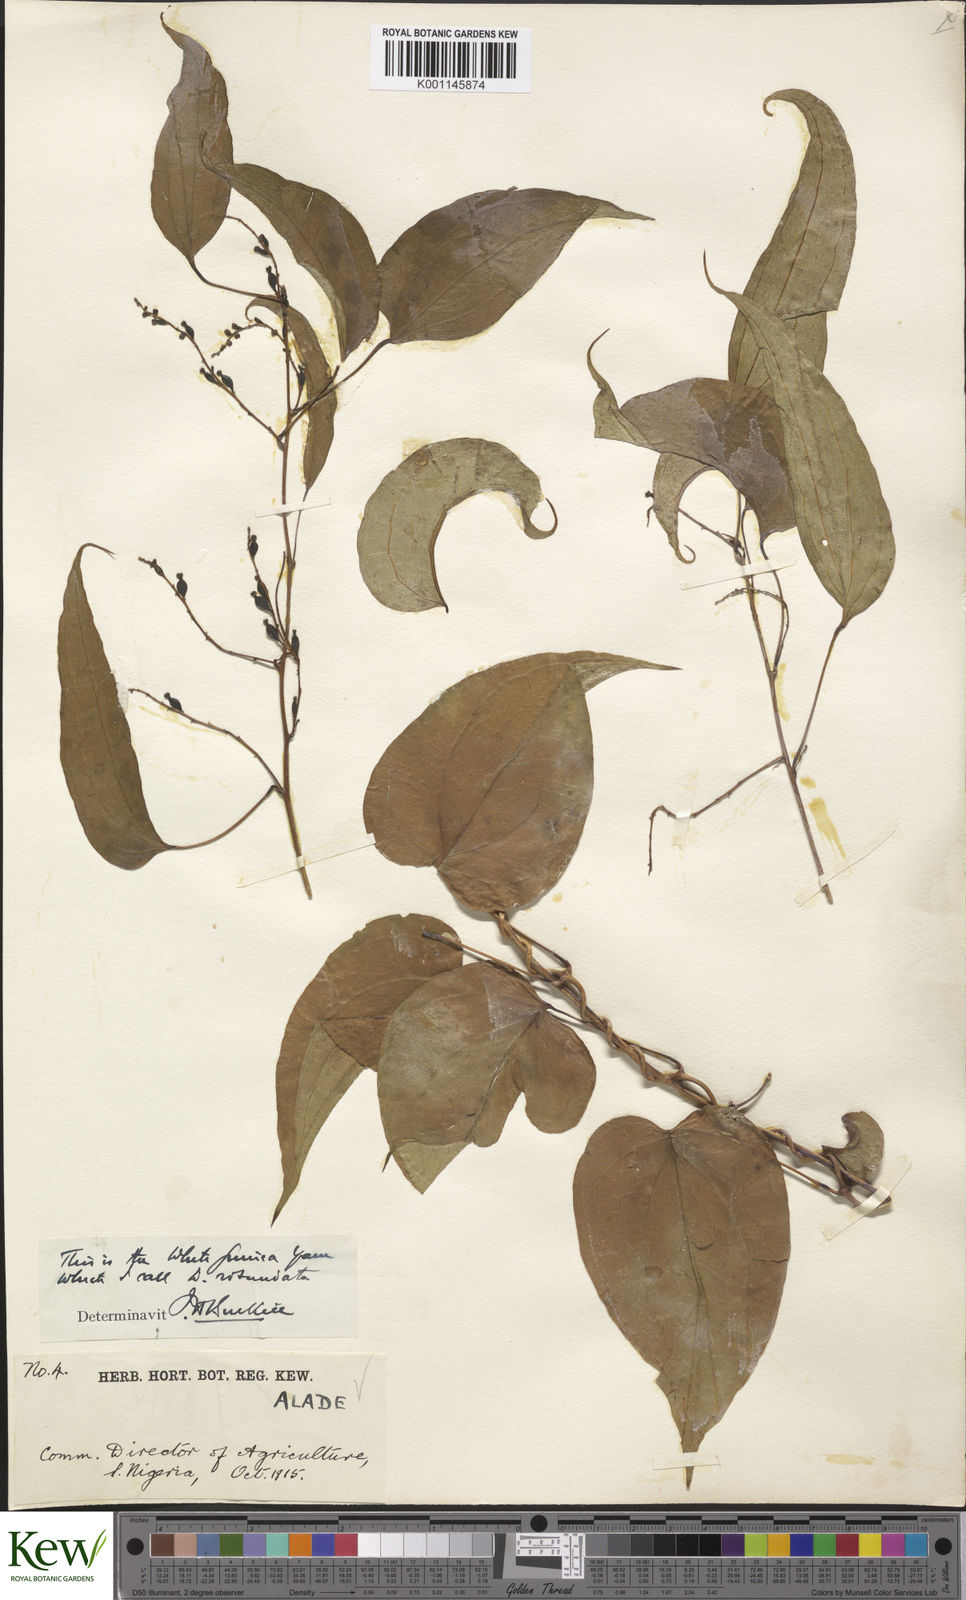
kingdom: Plantae
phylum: Tracheophyta
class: Liliopsida
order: Dioscoreales
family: Dioscoreaceae
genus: Dioscorea
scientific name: Dioscorea cayenensis
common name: Attoto yam
